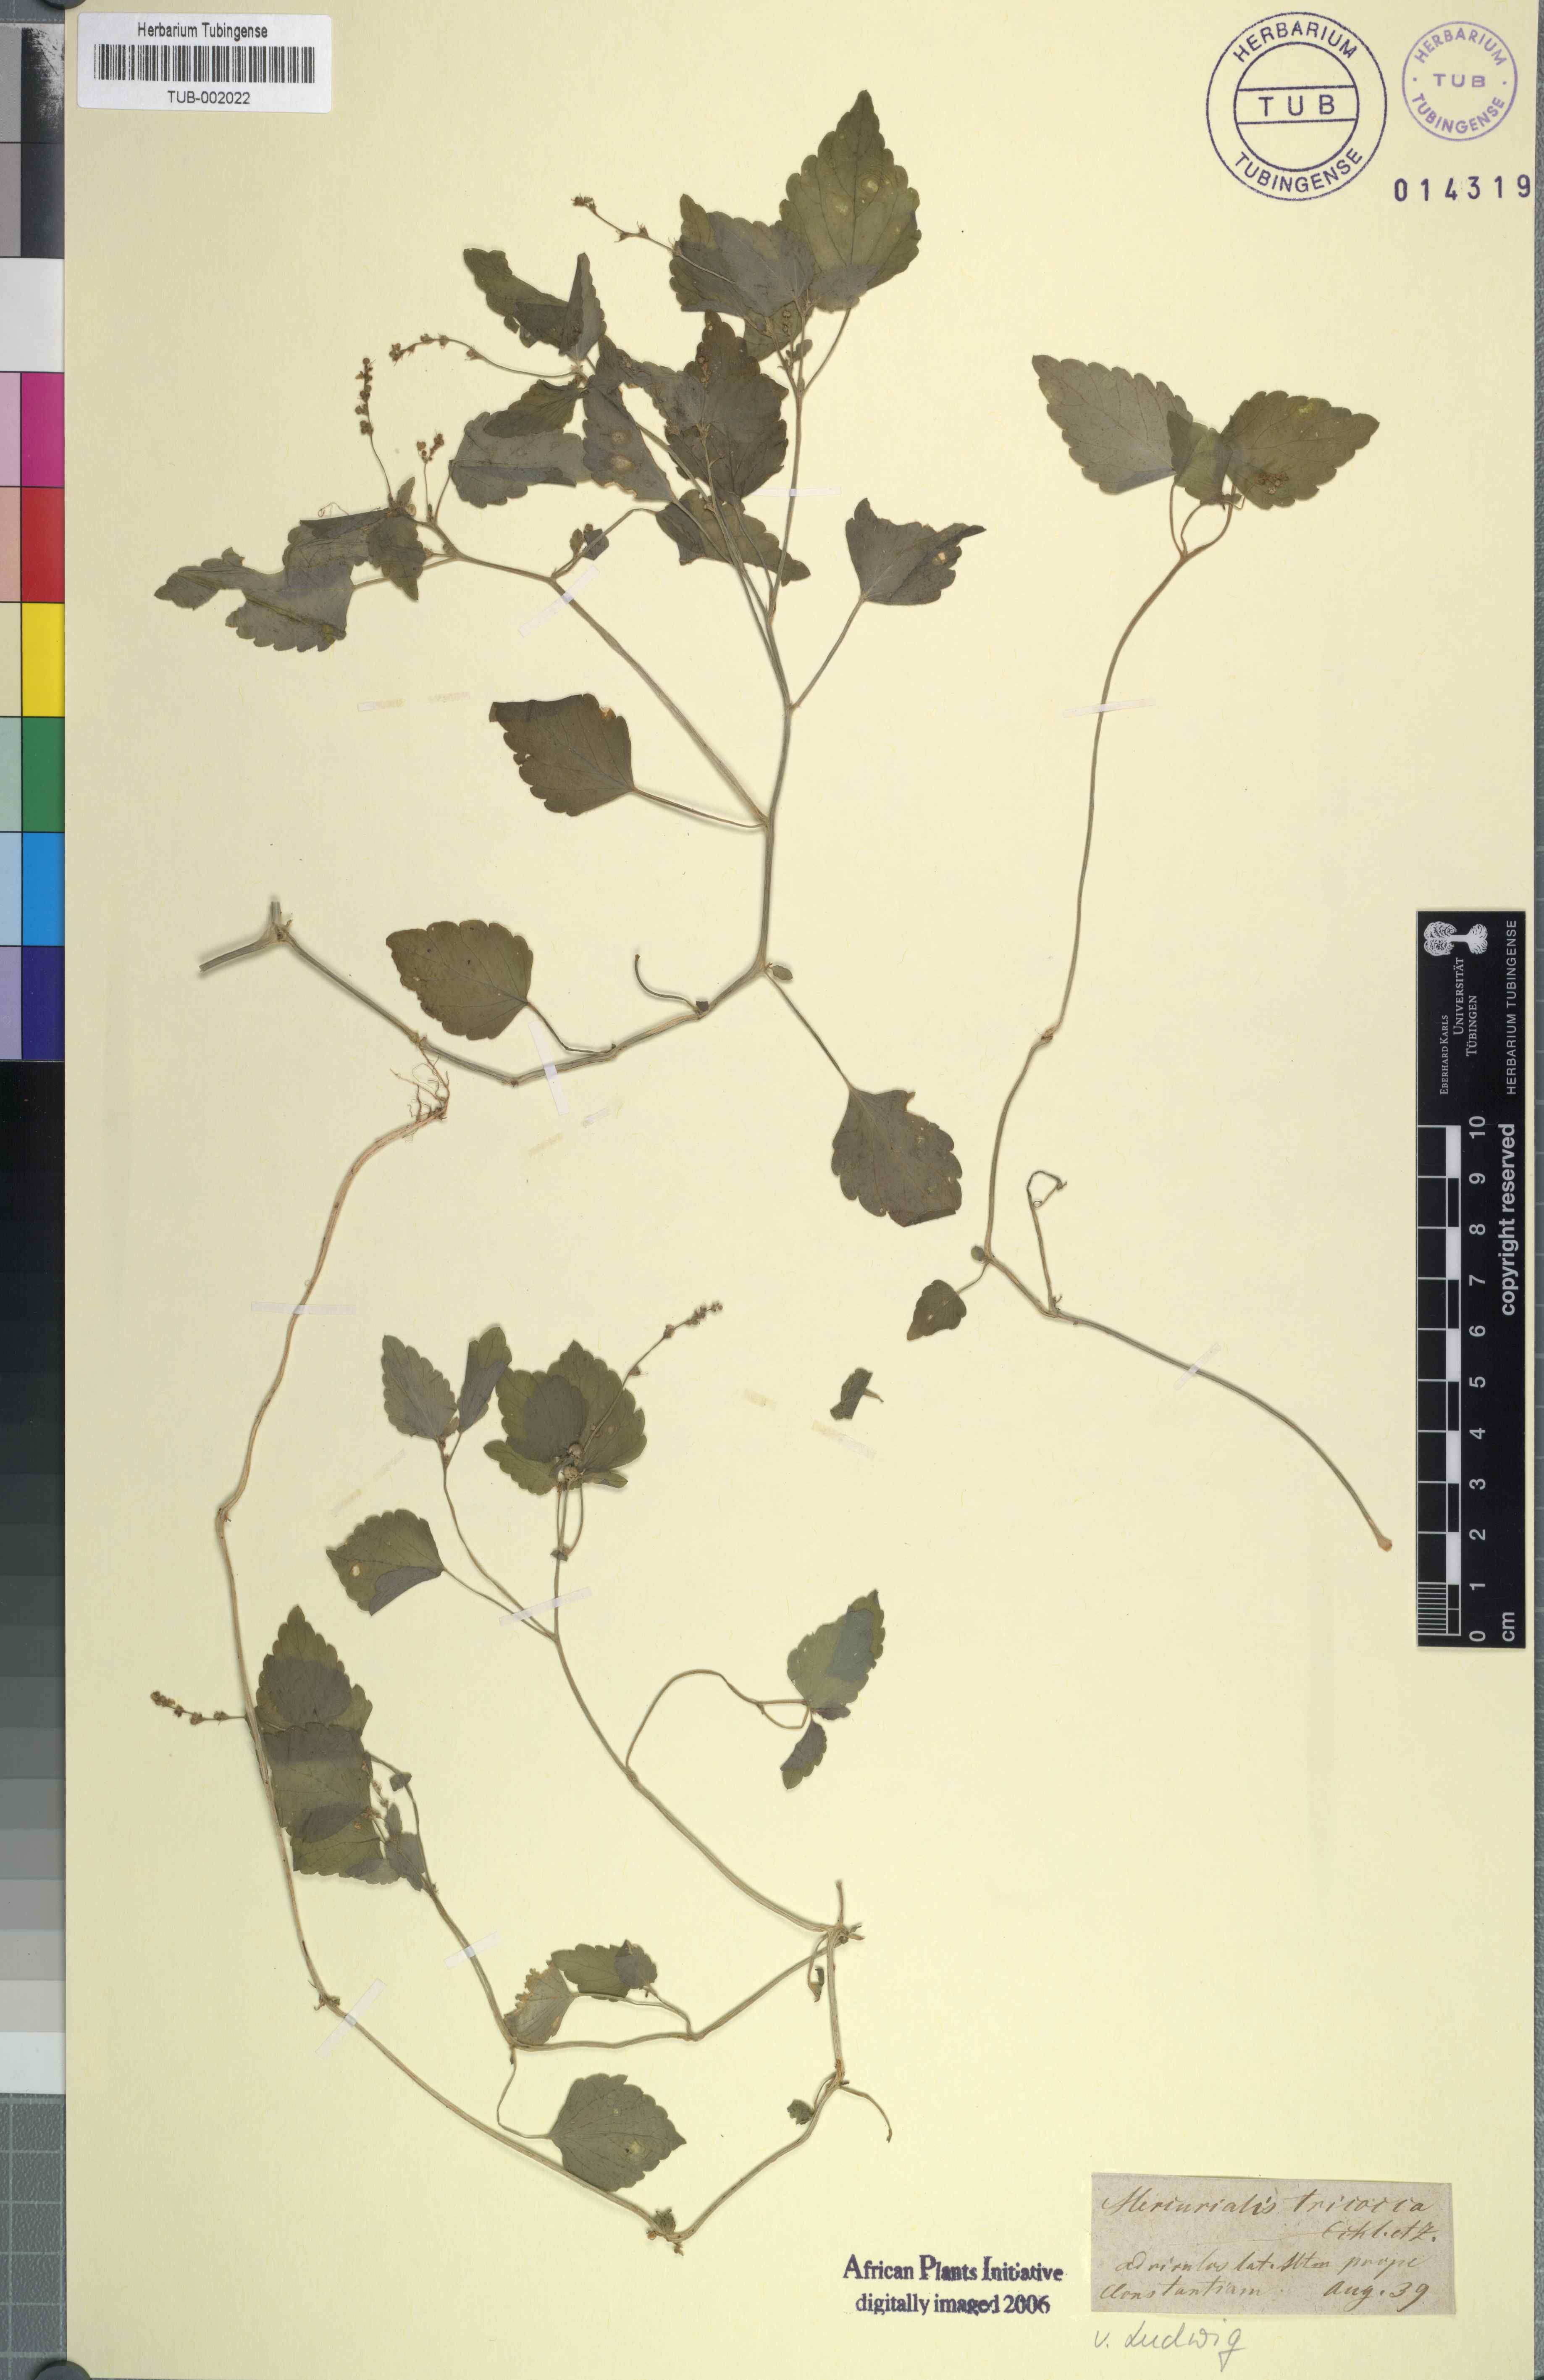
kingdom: Plantae
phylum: Tracheophyta
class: Magnoliopsida
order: Malpighiales
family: Euphorbiaceae
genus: Leidesia
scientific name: Leidesia procumbens
